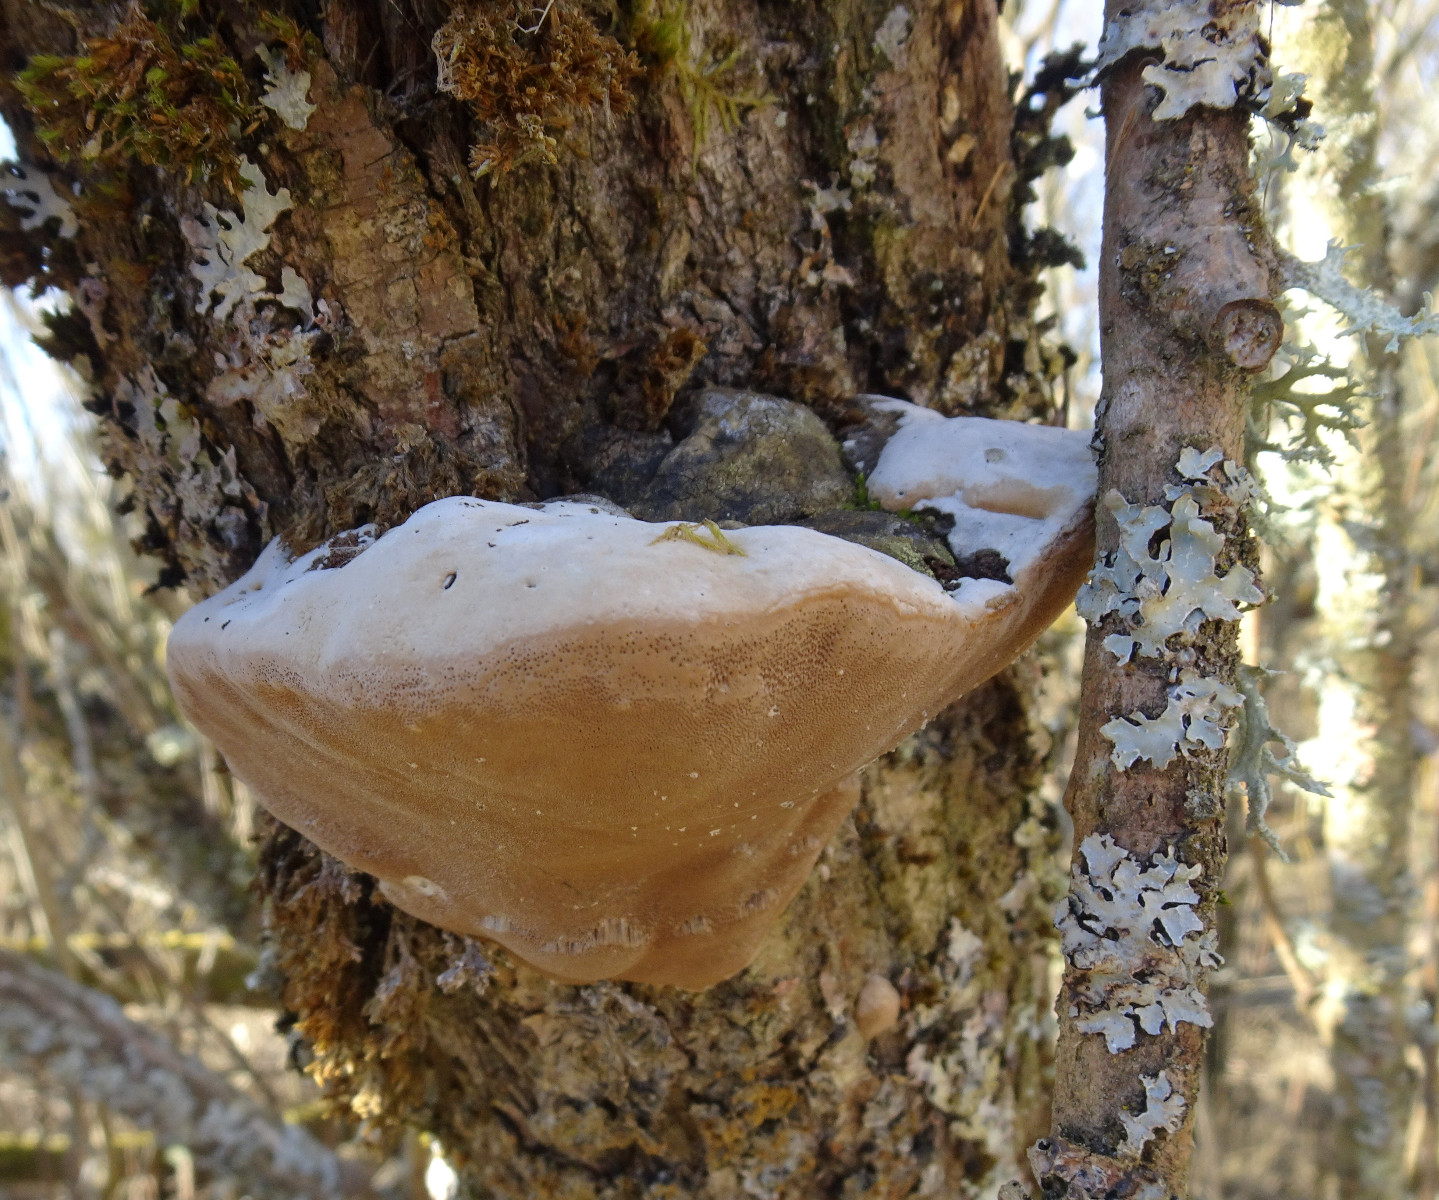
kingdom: Fungi
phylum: Basidiomycota
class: Agaricomycetes
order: Hymenochaetales
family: Hymenochaetaceae
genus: Phellinus
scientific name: Phellinus igniarius
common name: almindelig ildporesvamp
